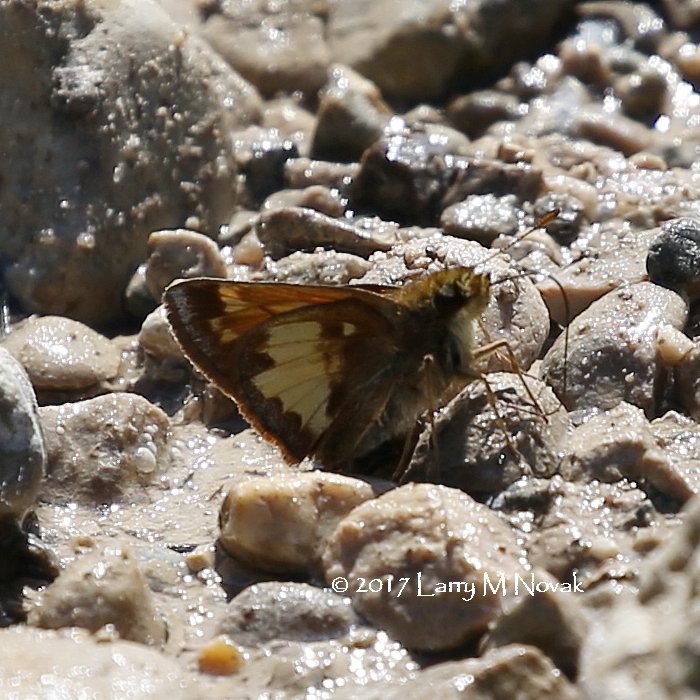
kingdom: Animalia
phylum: Arthropoda
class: Insecta
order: Lepidoptera
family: Hesperiidae
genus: Polites
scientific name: Polites coras
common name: Peck's Skipper
